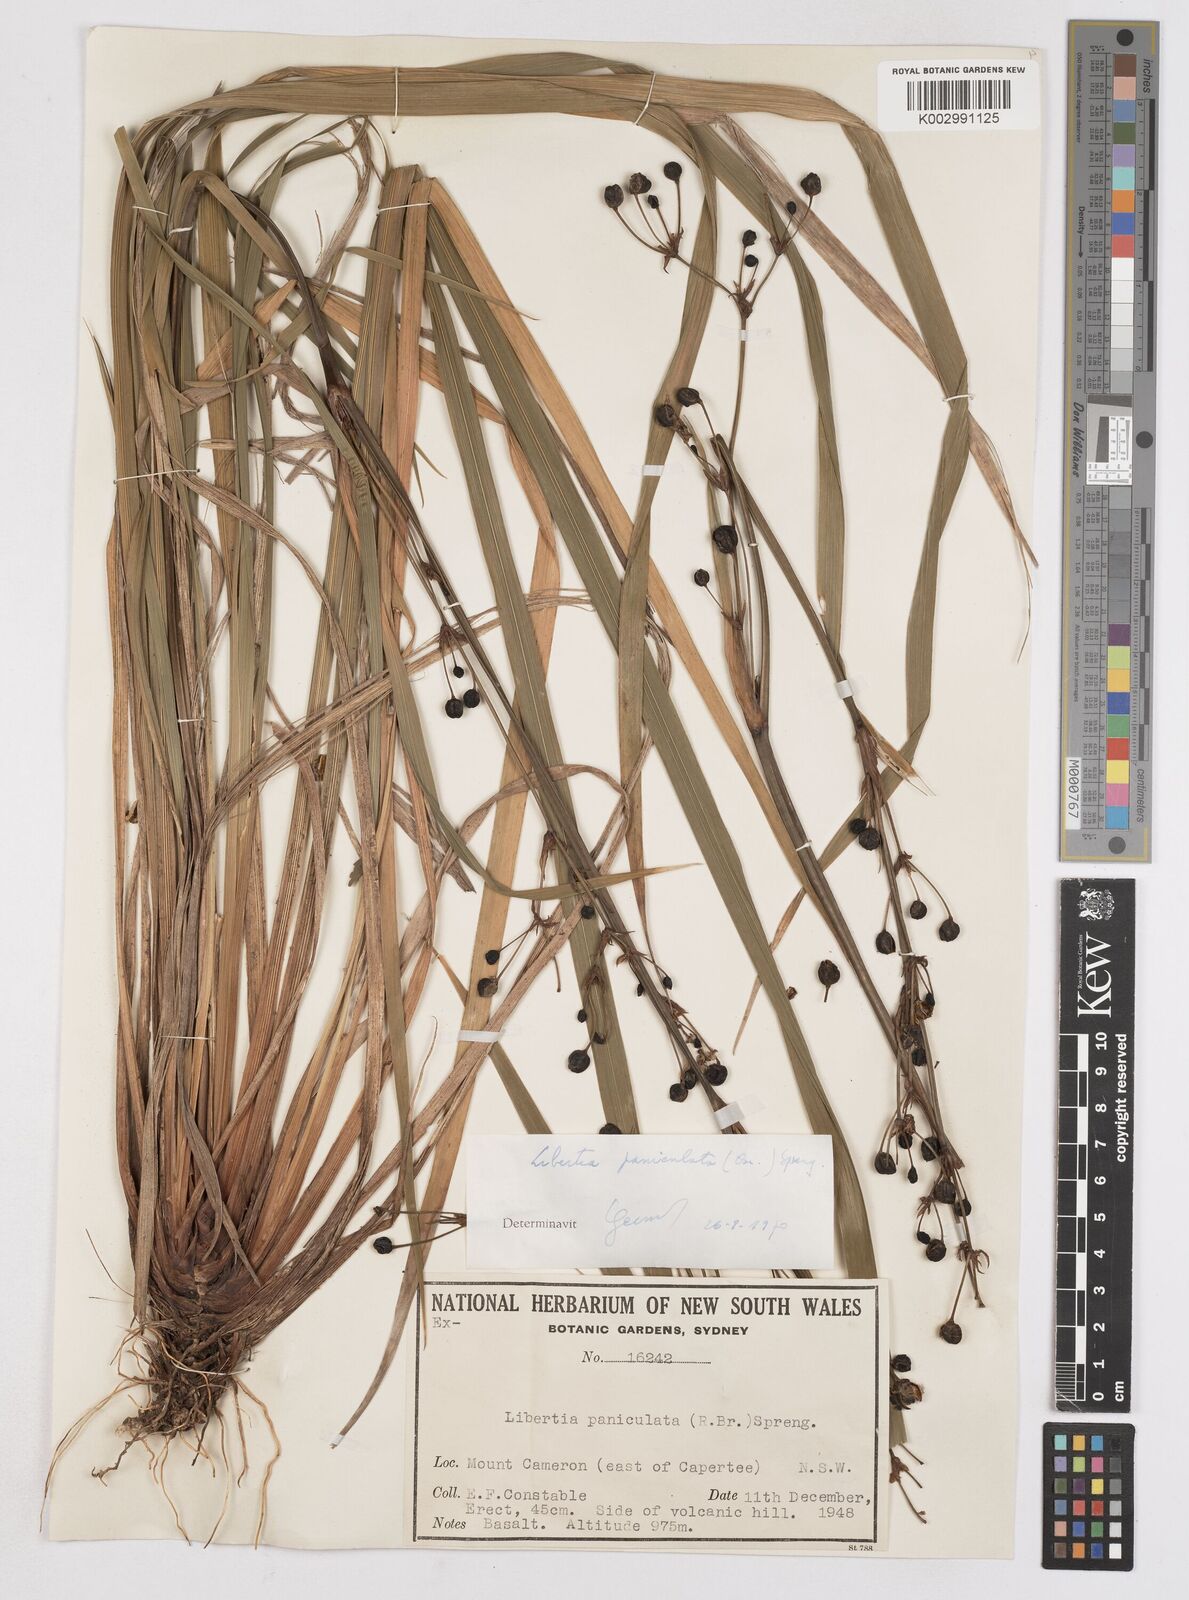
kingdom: Plantae
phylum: Tracheophyta
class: Liliopsida
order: Asparagales
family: Iridaceae
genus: Libertia
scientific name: Libertia paniculata
